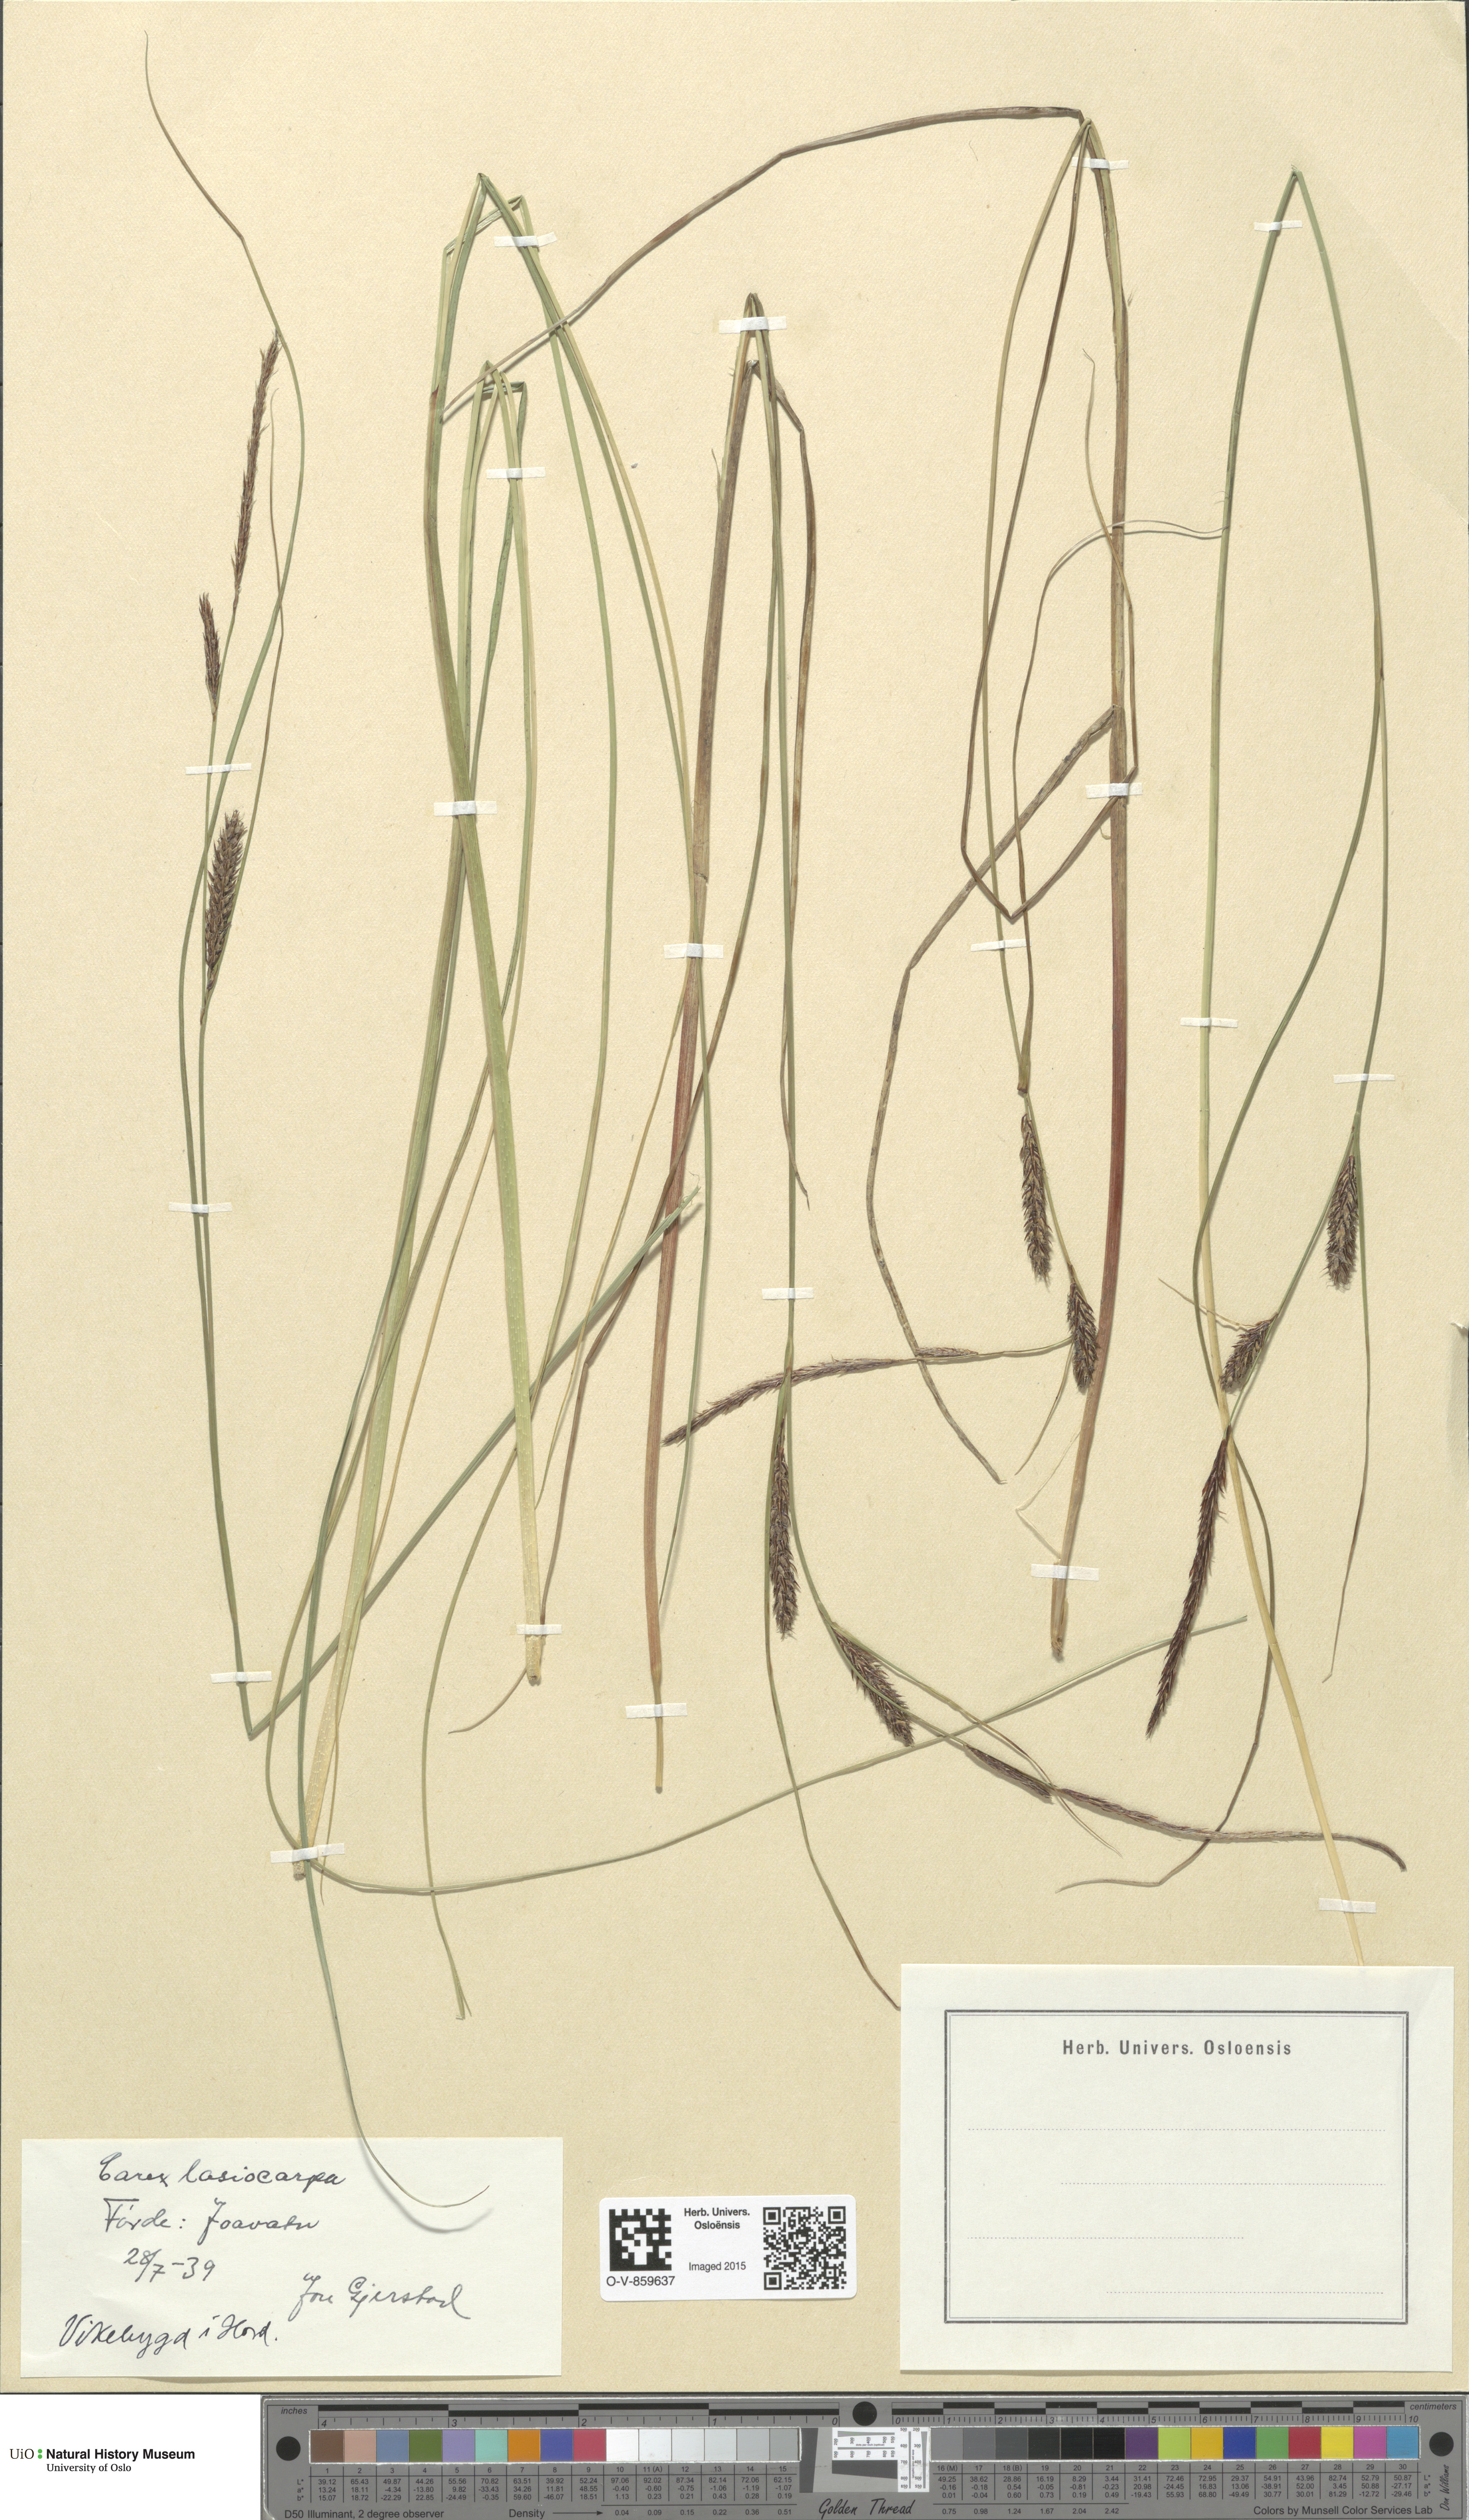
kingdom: Plantae
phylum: Tracheophyta
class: Liliopsida
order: Poales
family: Cyperaceae
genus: Carex
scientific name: Carex lasiocarpa
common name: Slender sedge
